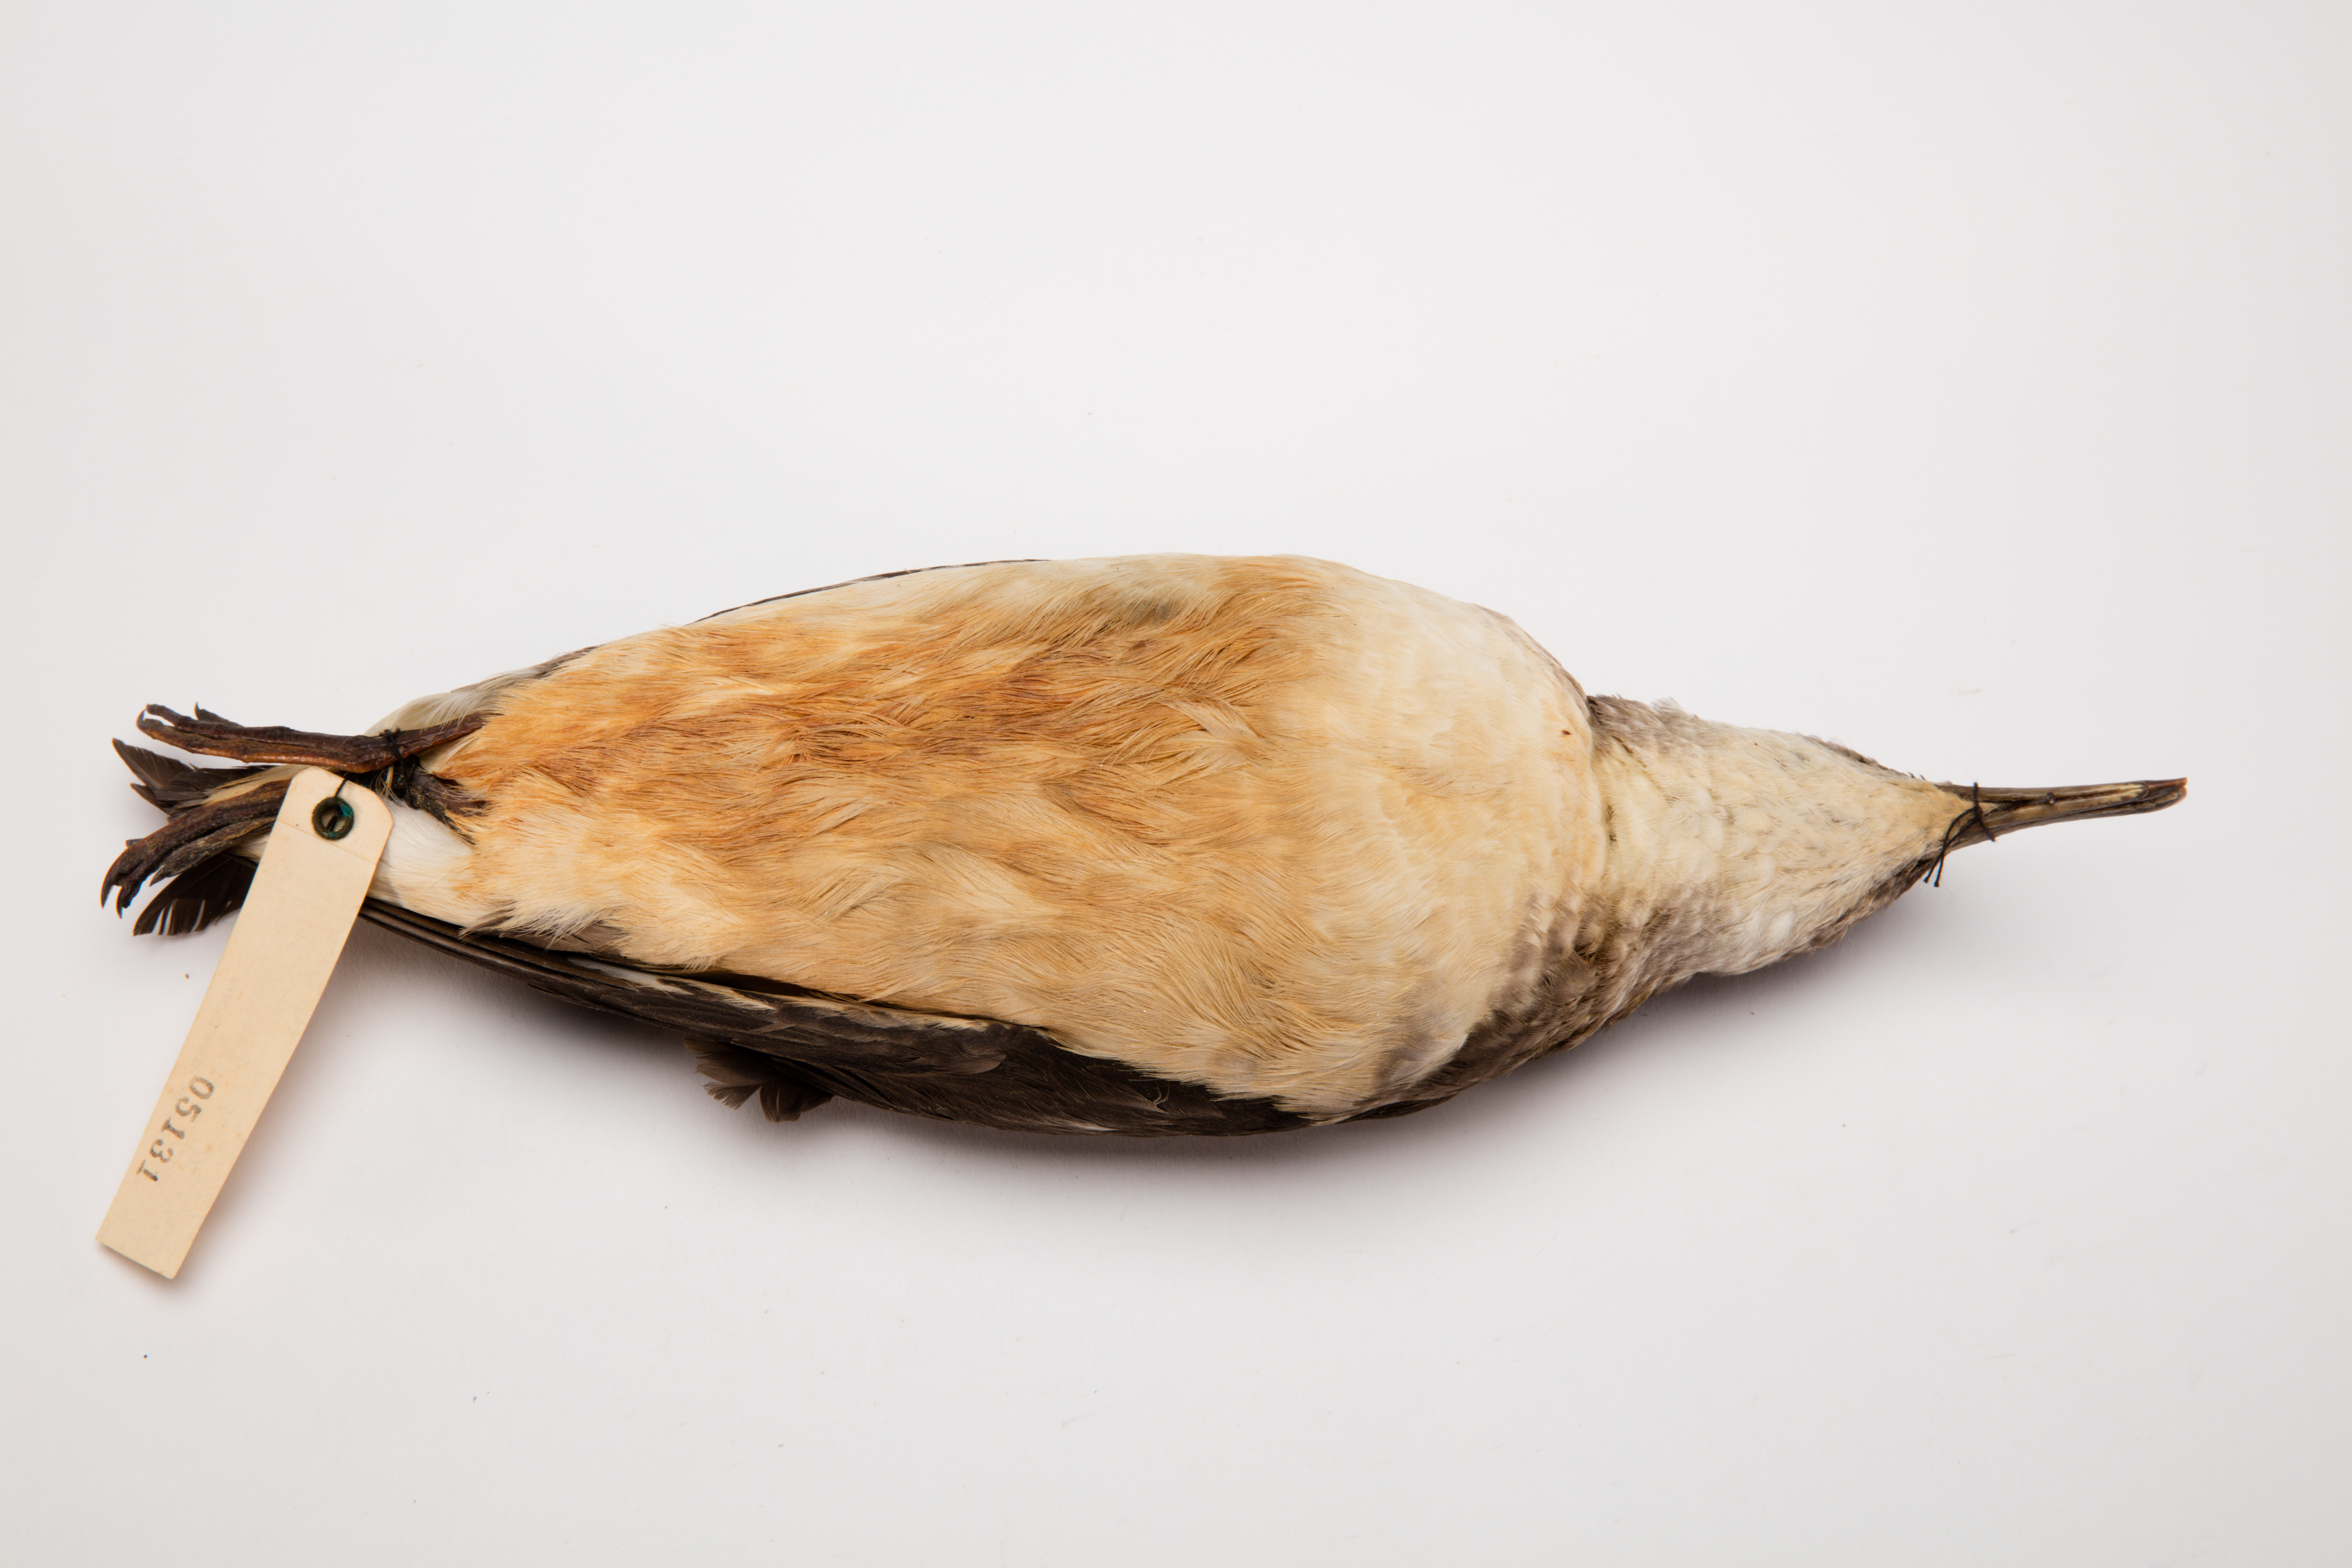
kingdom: Animalia
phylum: Chordata
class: Aves
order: Procellariiformes
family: Procellariidae
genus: Ardenna
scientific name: Ardenna
